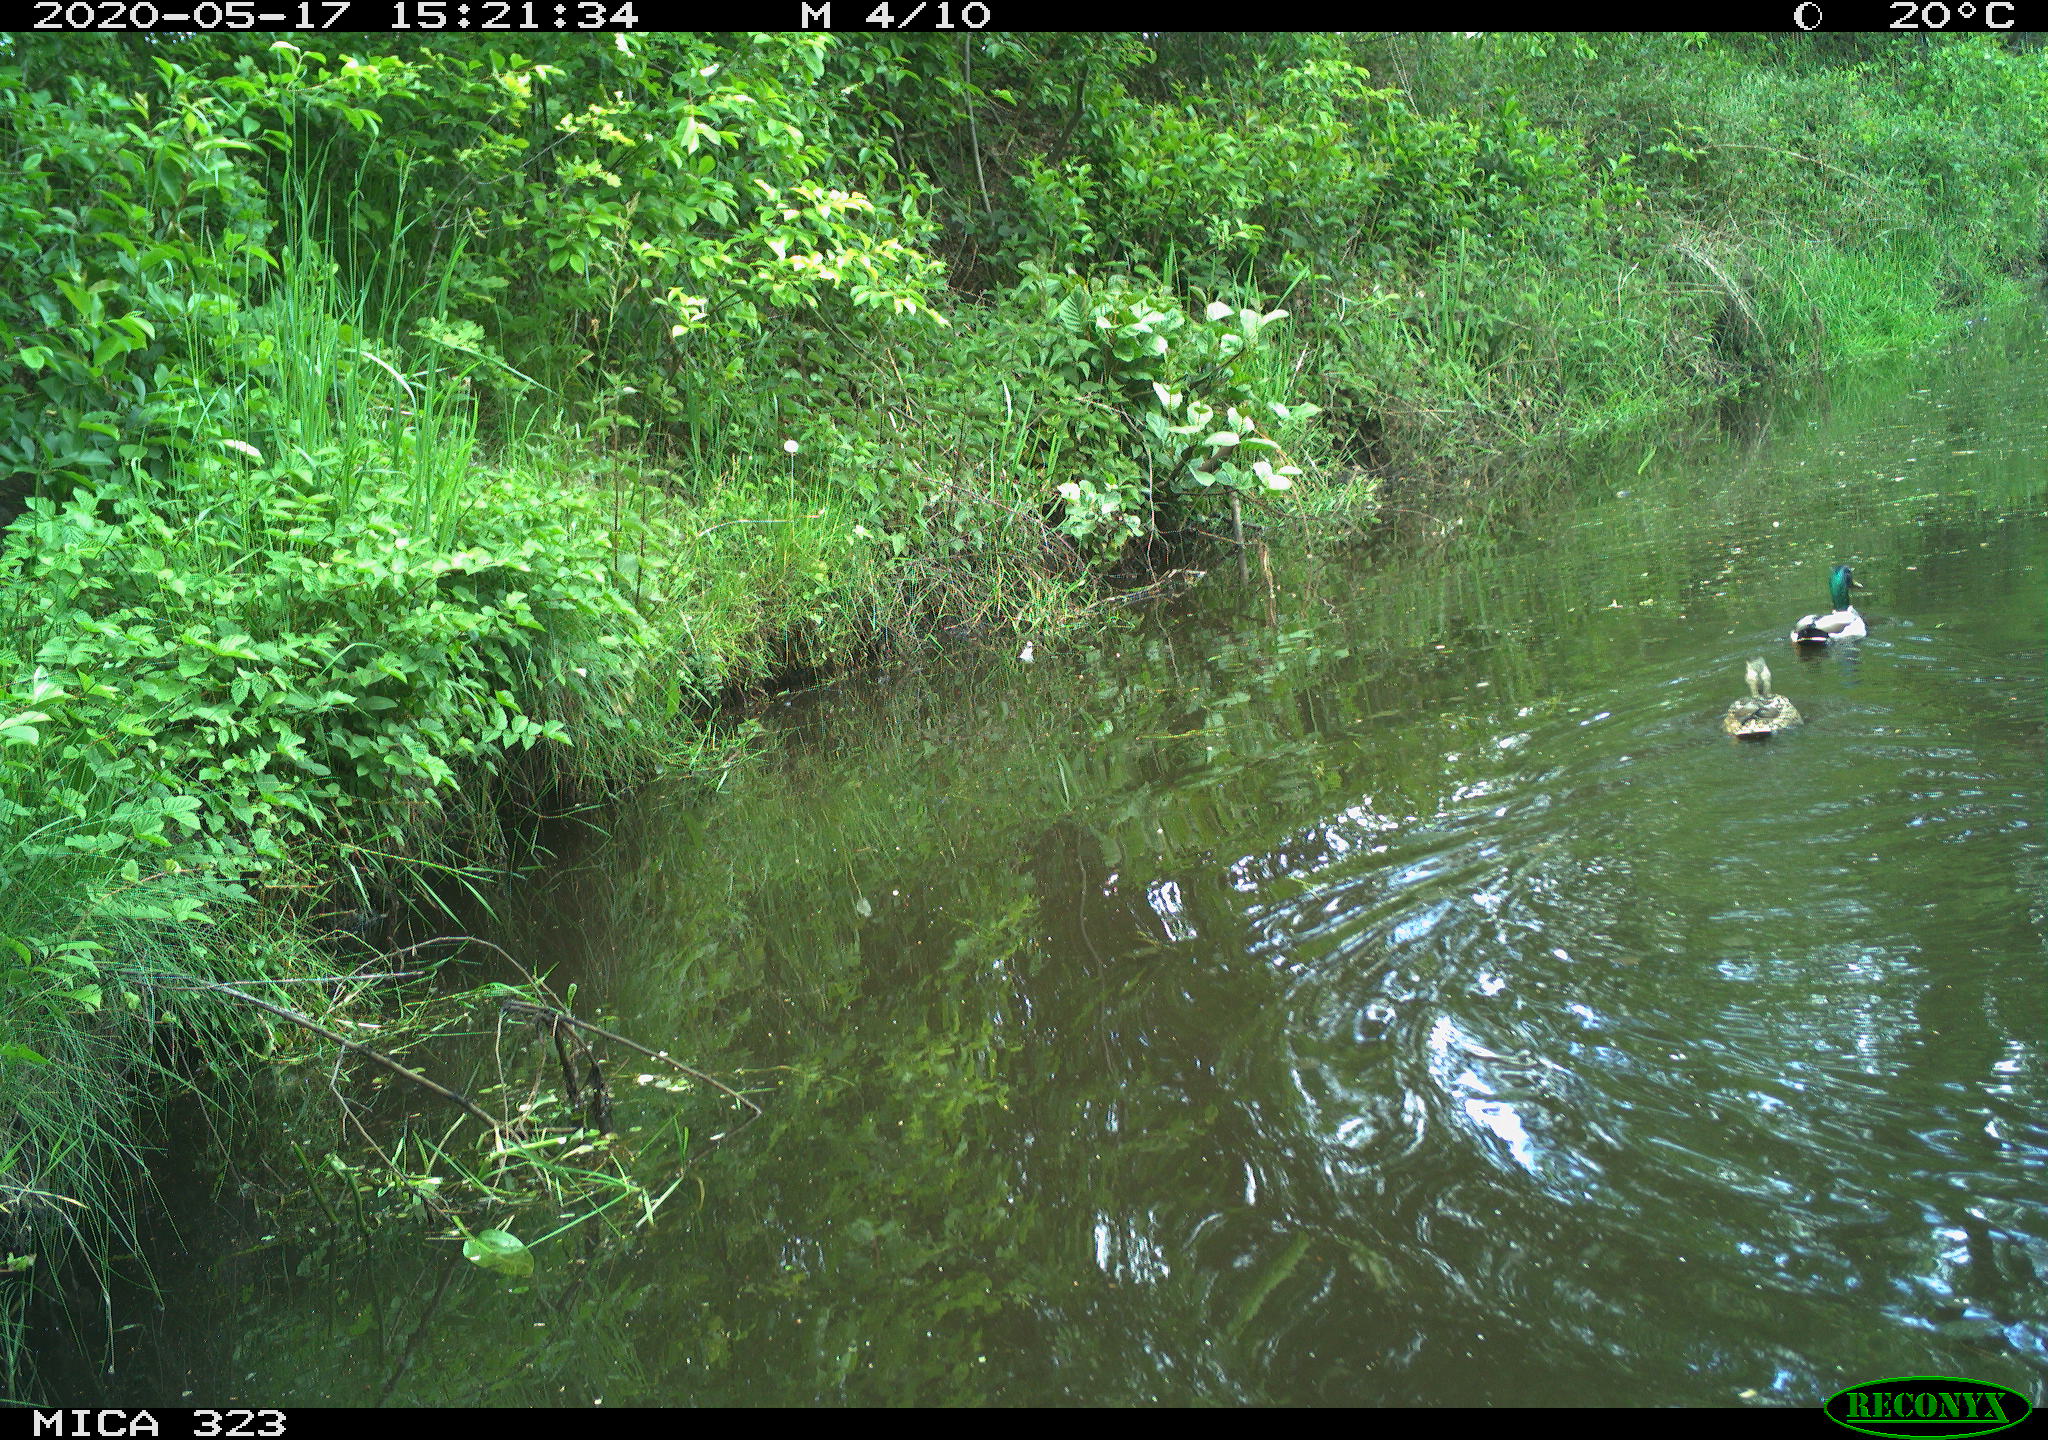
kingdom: Animalia
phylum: Chordata
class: Aves
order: Anseriformes
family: Anatidae
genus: Anas
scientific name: Anas platyrhynchos
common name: Mallard
